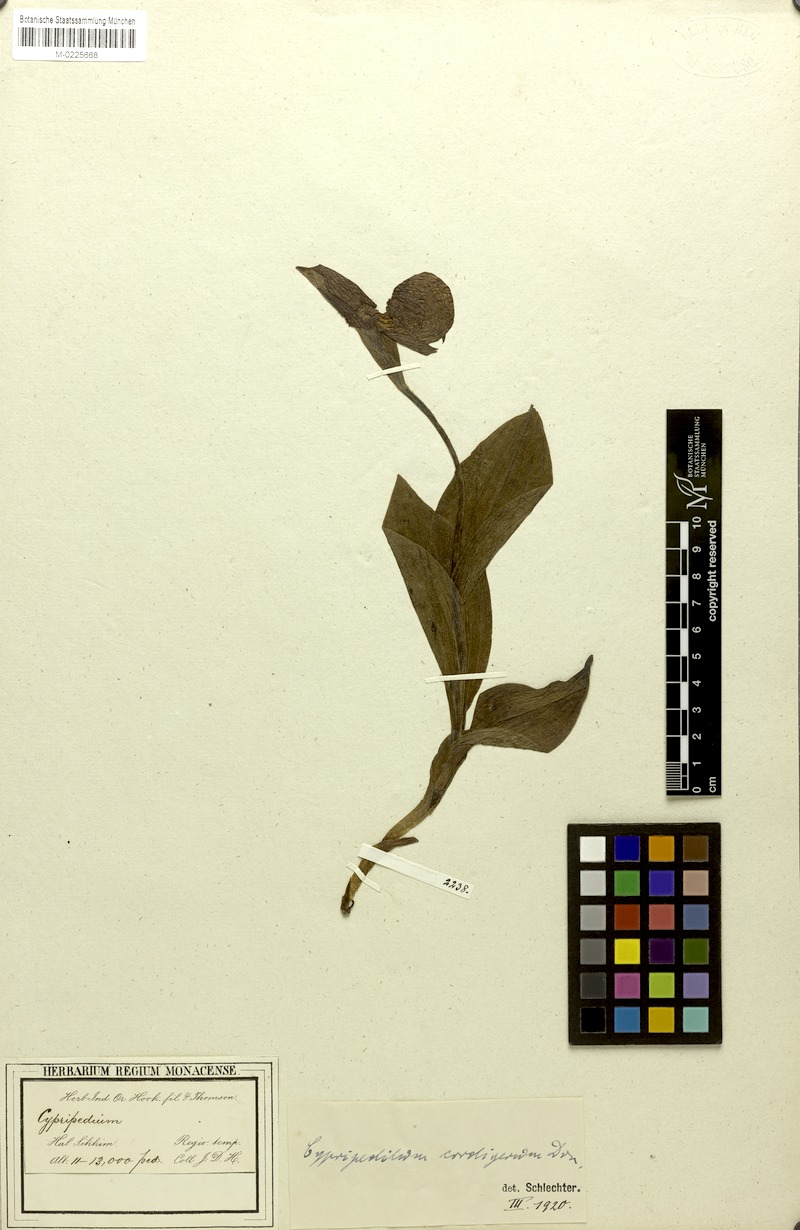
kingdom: Plantae
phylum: Tracheophyta
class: Liliopsida
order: Asparagales
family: Orchidaceae
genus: Cypripedium
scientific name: Cypripedium cordigerum
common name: Heart-shaped lip cypripedium
